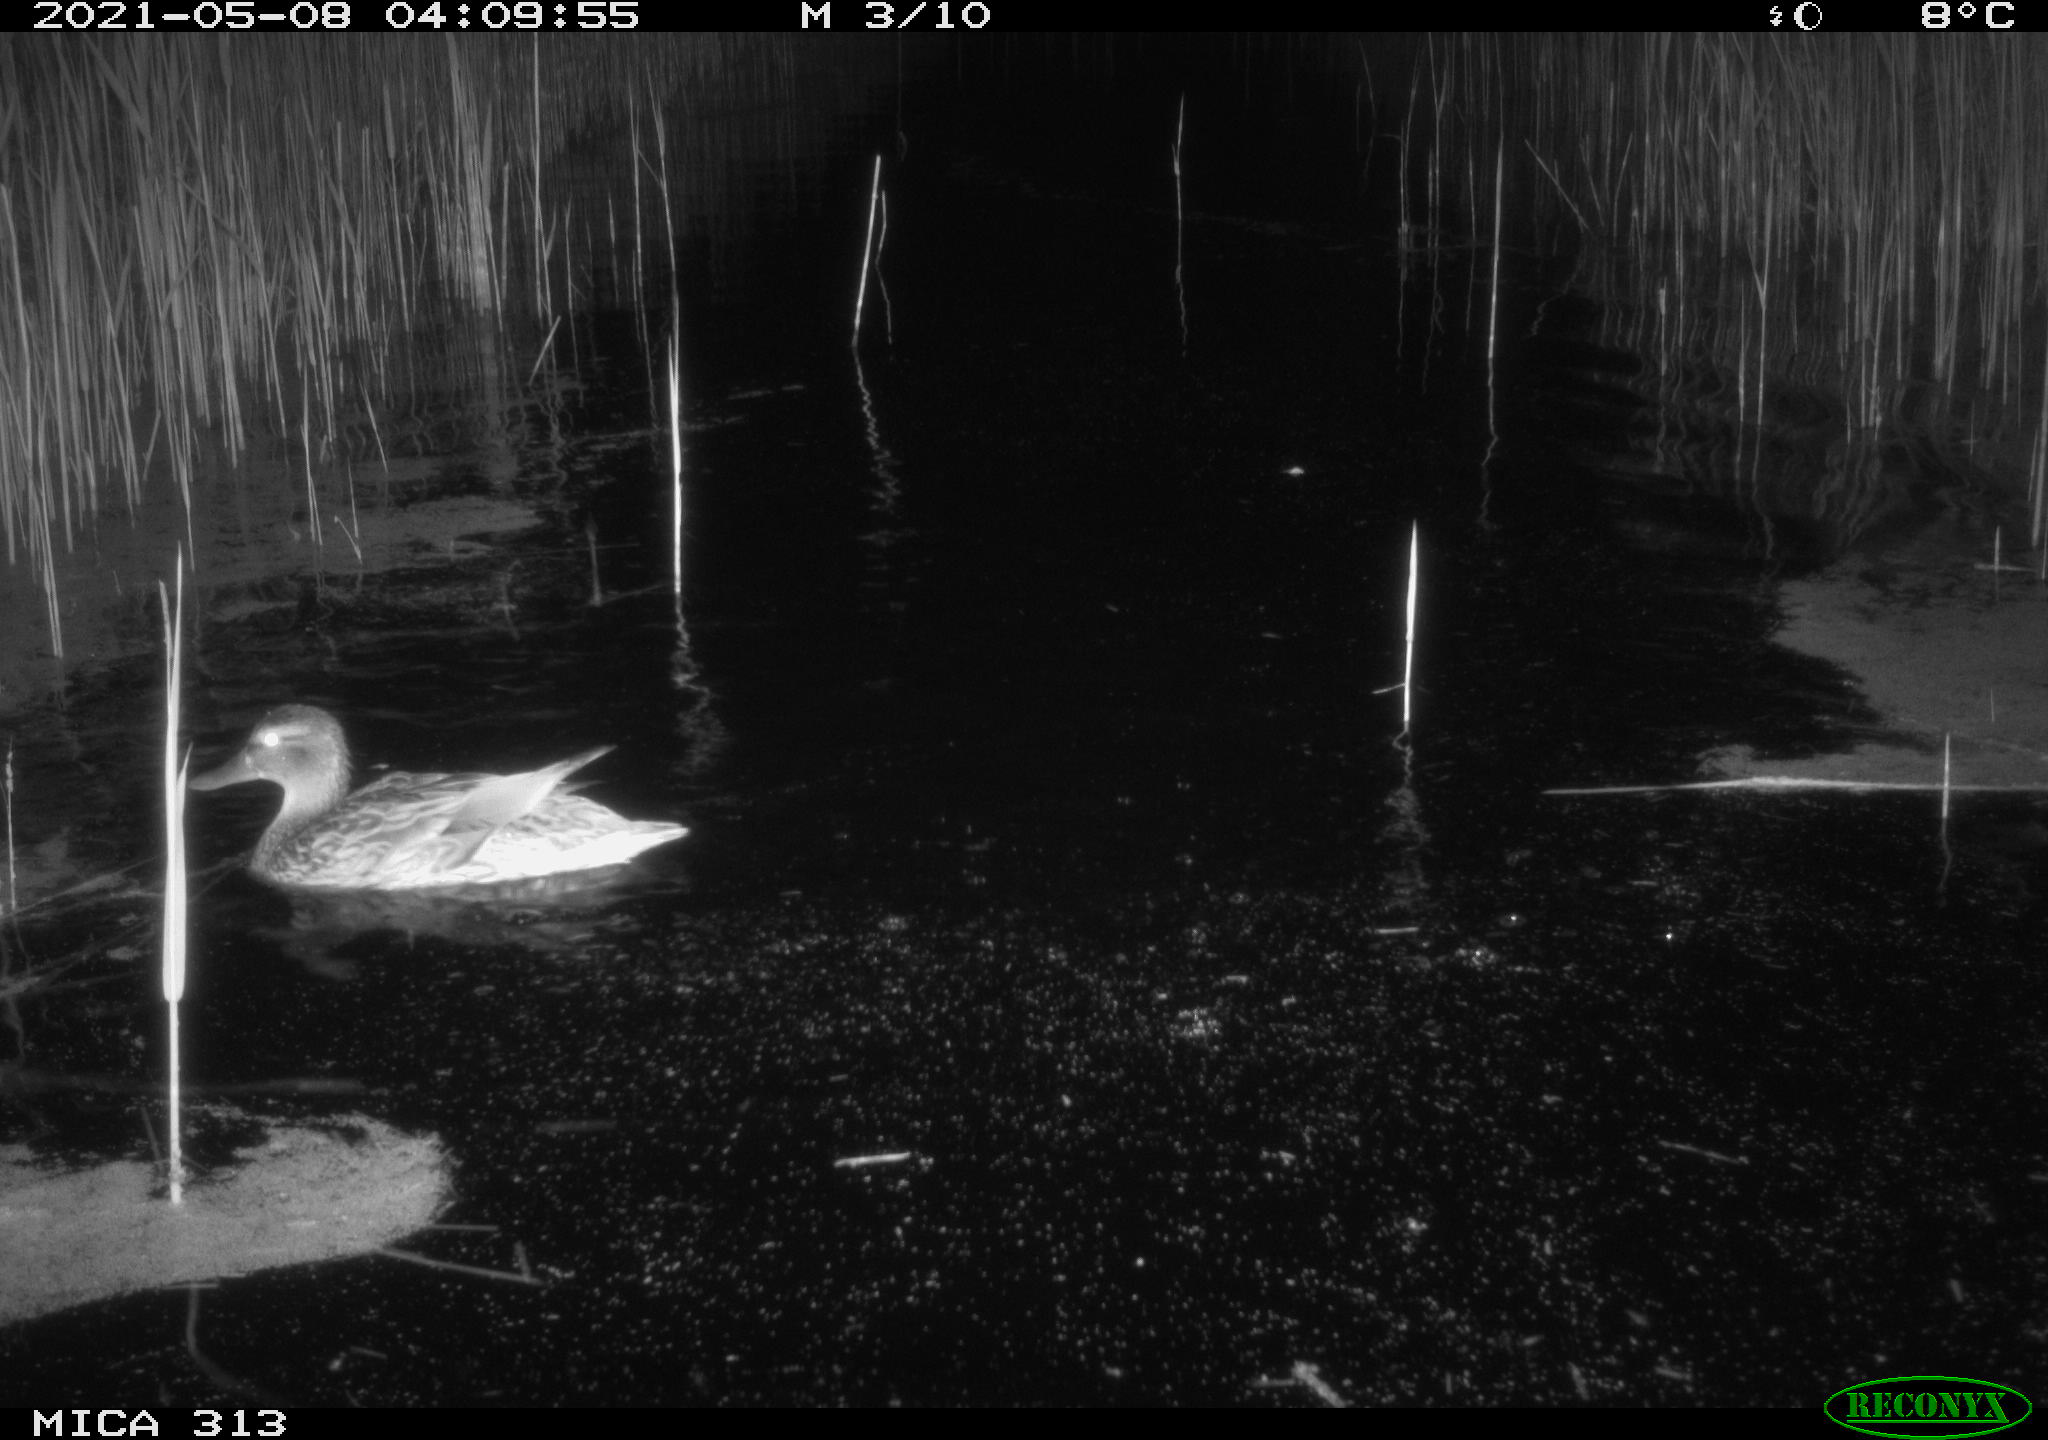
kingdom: Animalia
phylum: Chordata
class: Aves
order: Anseriformes
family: Anatidae
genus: Anas
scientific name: Anas platyrhynchos
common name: Mallard
